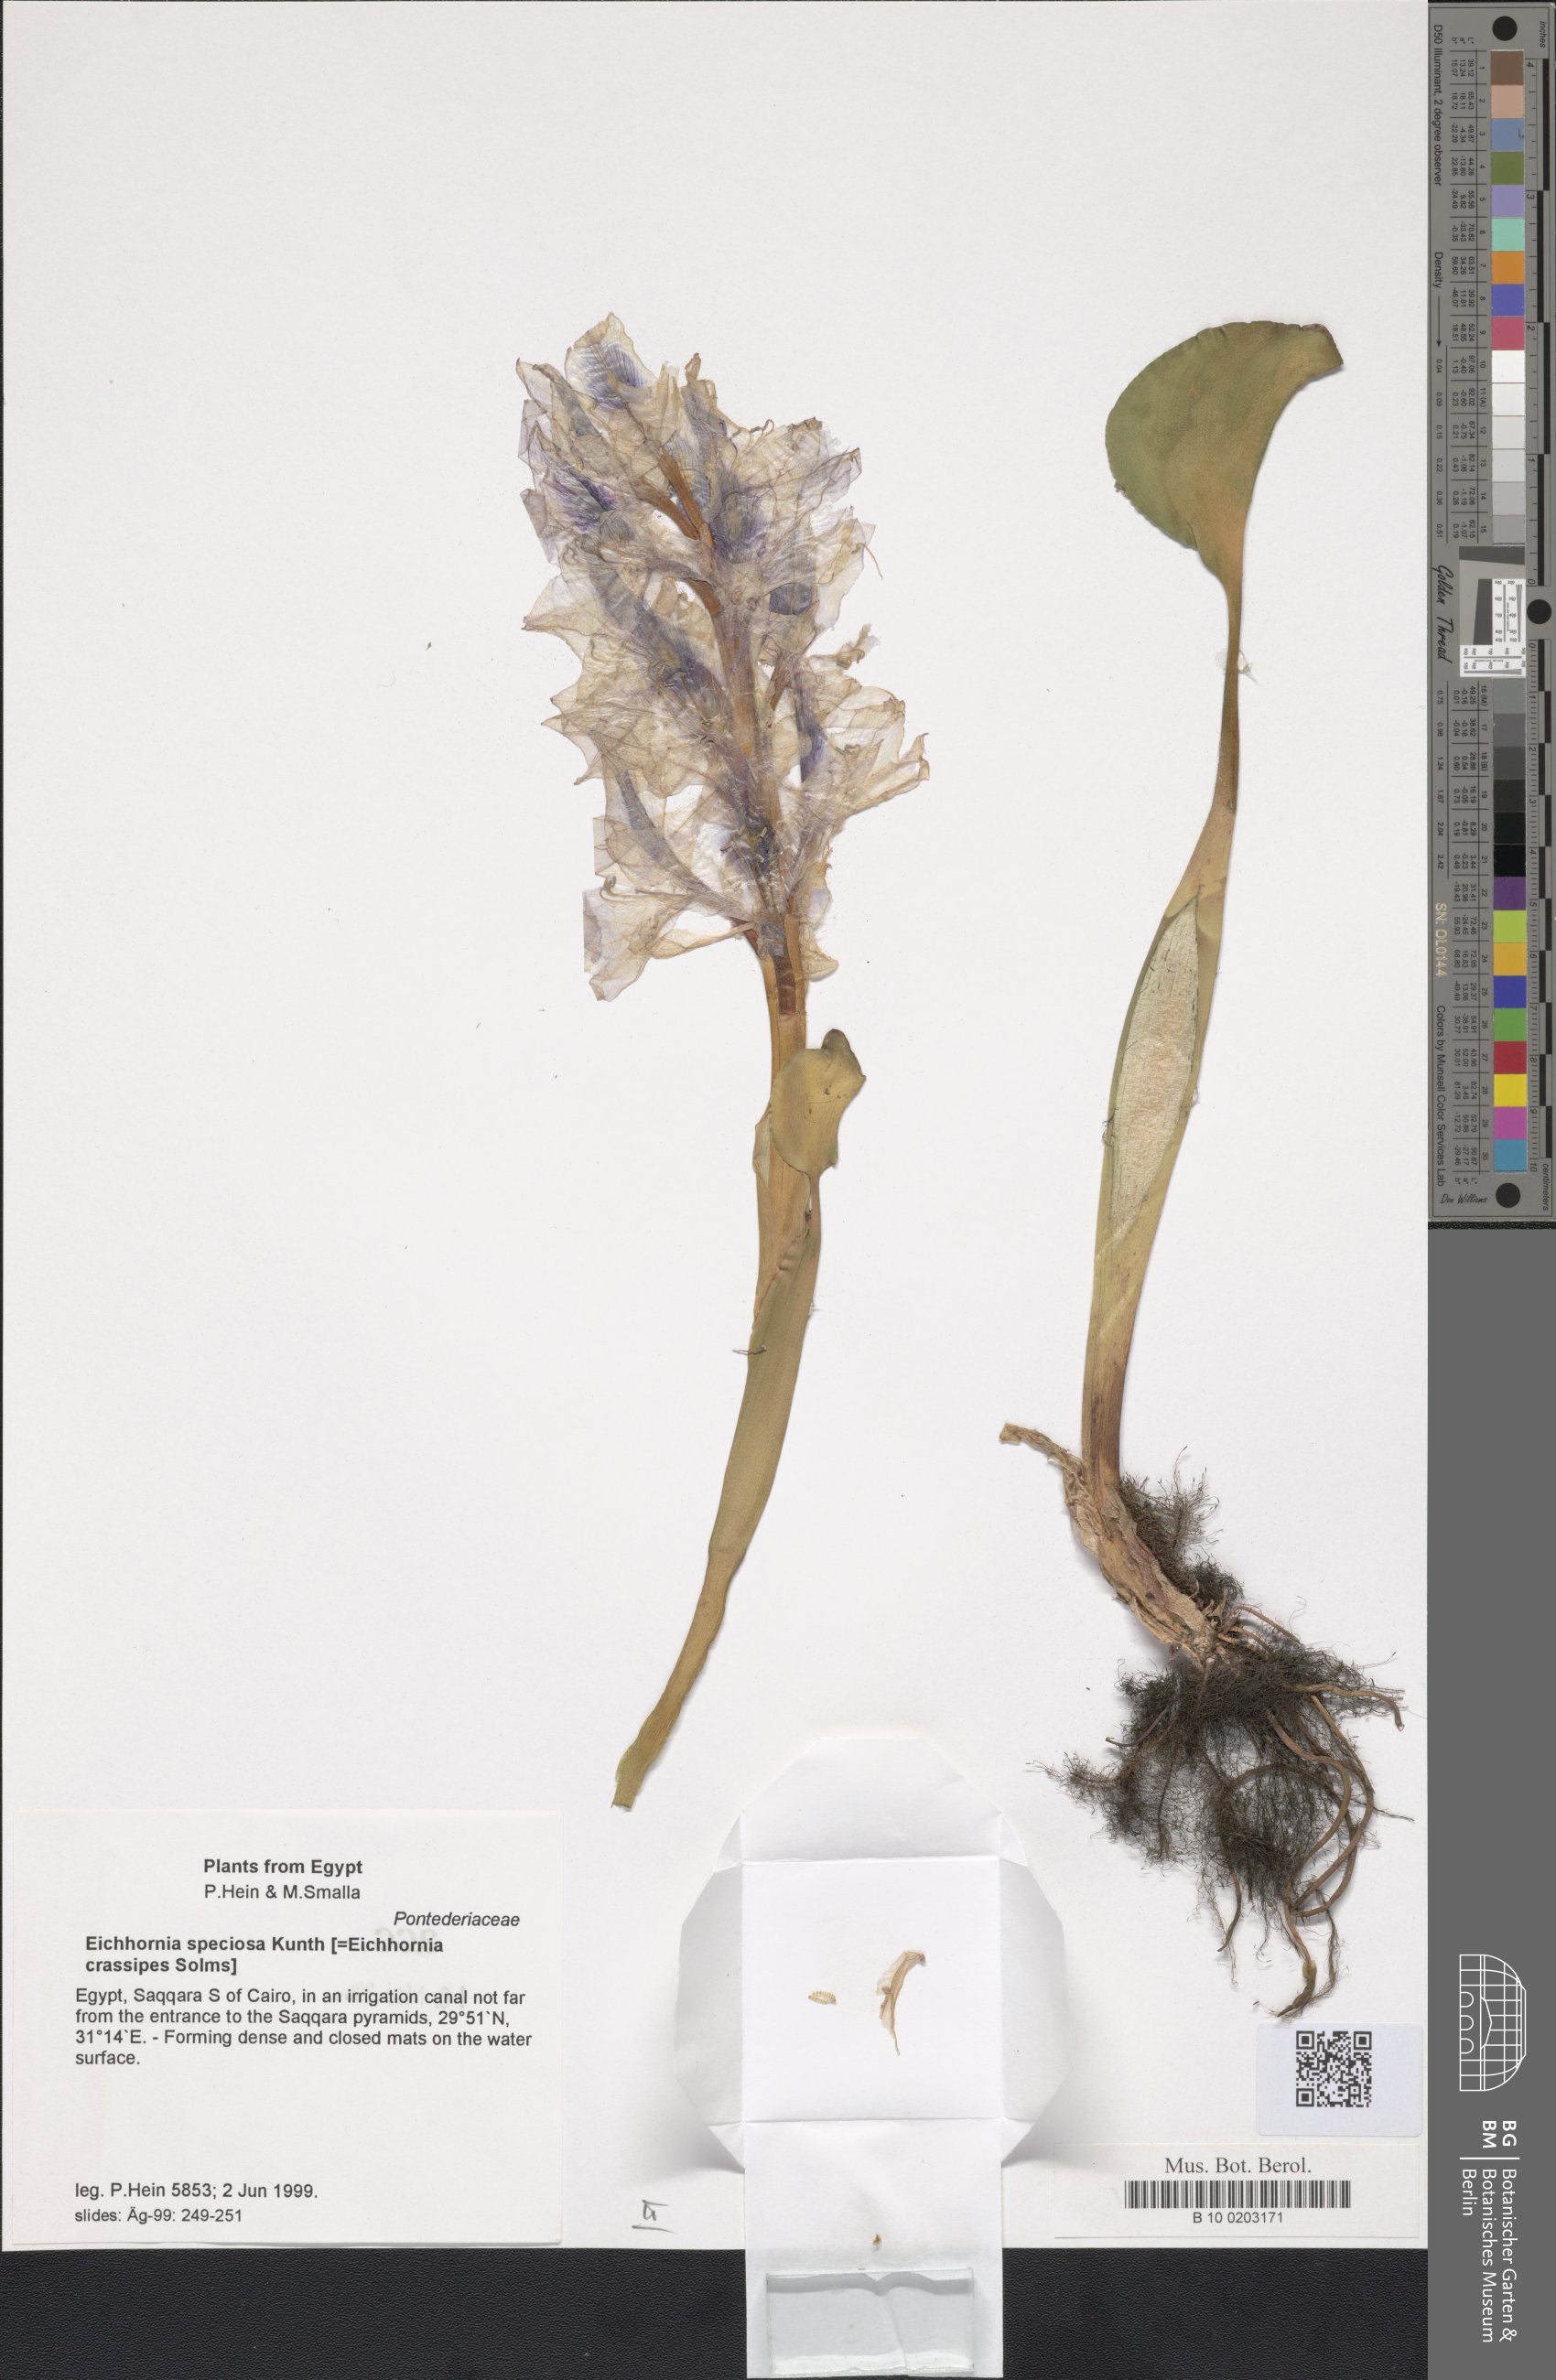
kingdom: Plantae
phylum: Tracheophyta
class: Liliopsida
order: Commelinales
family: Pontederiaceae
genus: Pontederia
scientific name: Pontederia crassipes
